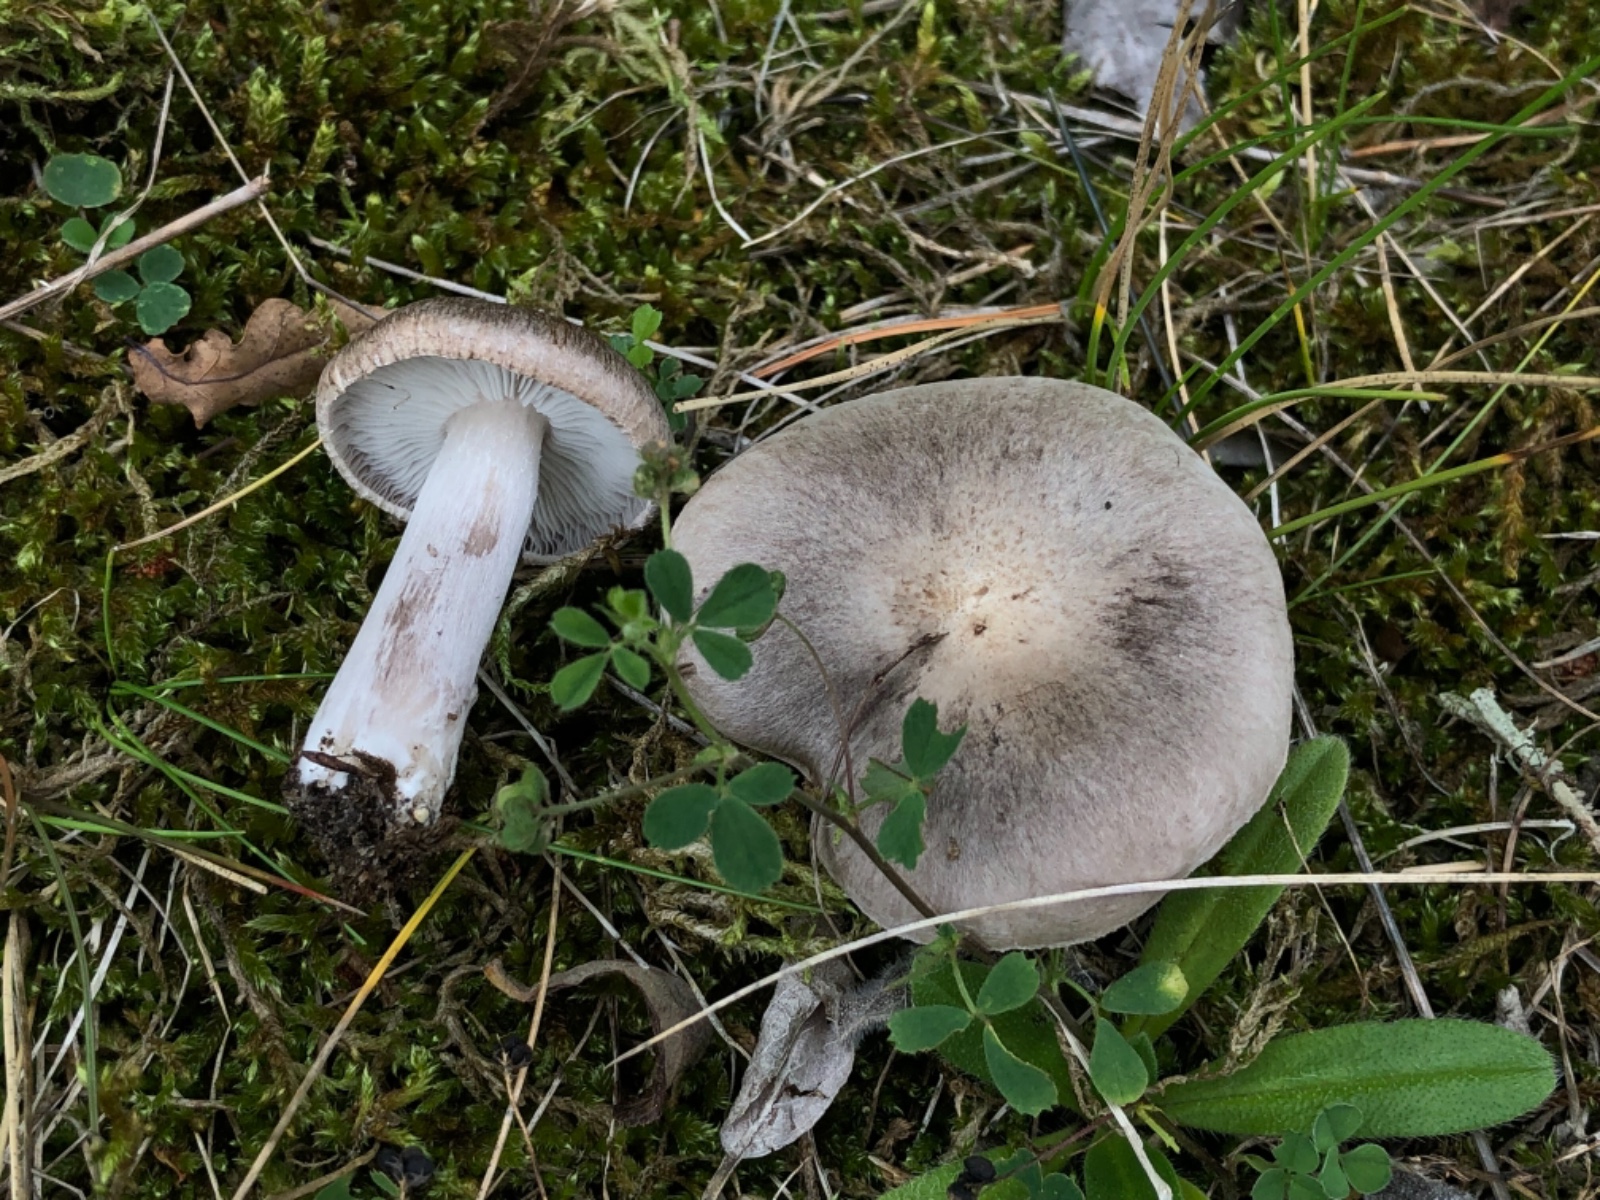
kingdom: Fungi
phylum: Basidiomycota
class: Agaricomycetes
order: Agaricales
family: Tricholomataceae
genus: Tricholoma
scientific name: Tricholoma scalpturatum
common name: gulplettet ridderhat
